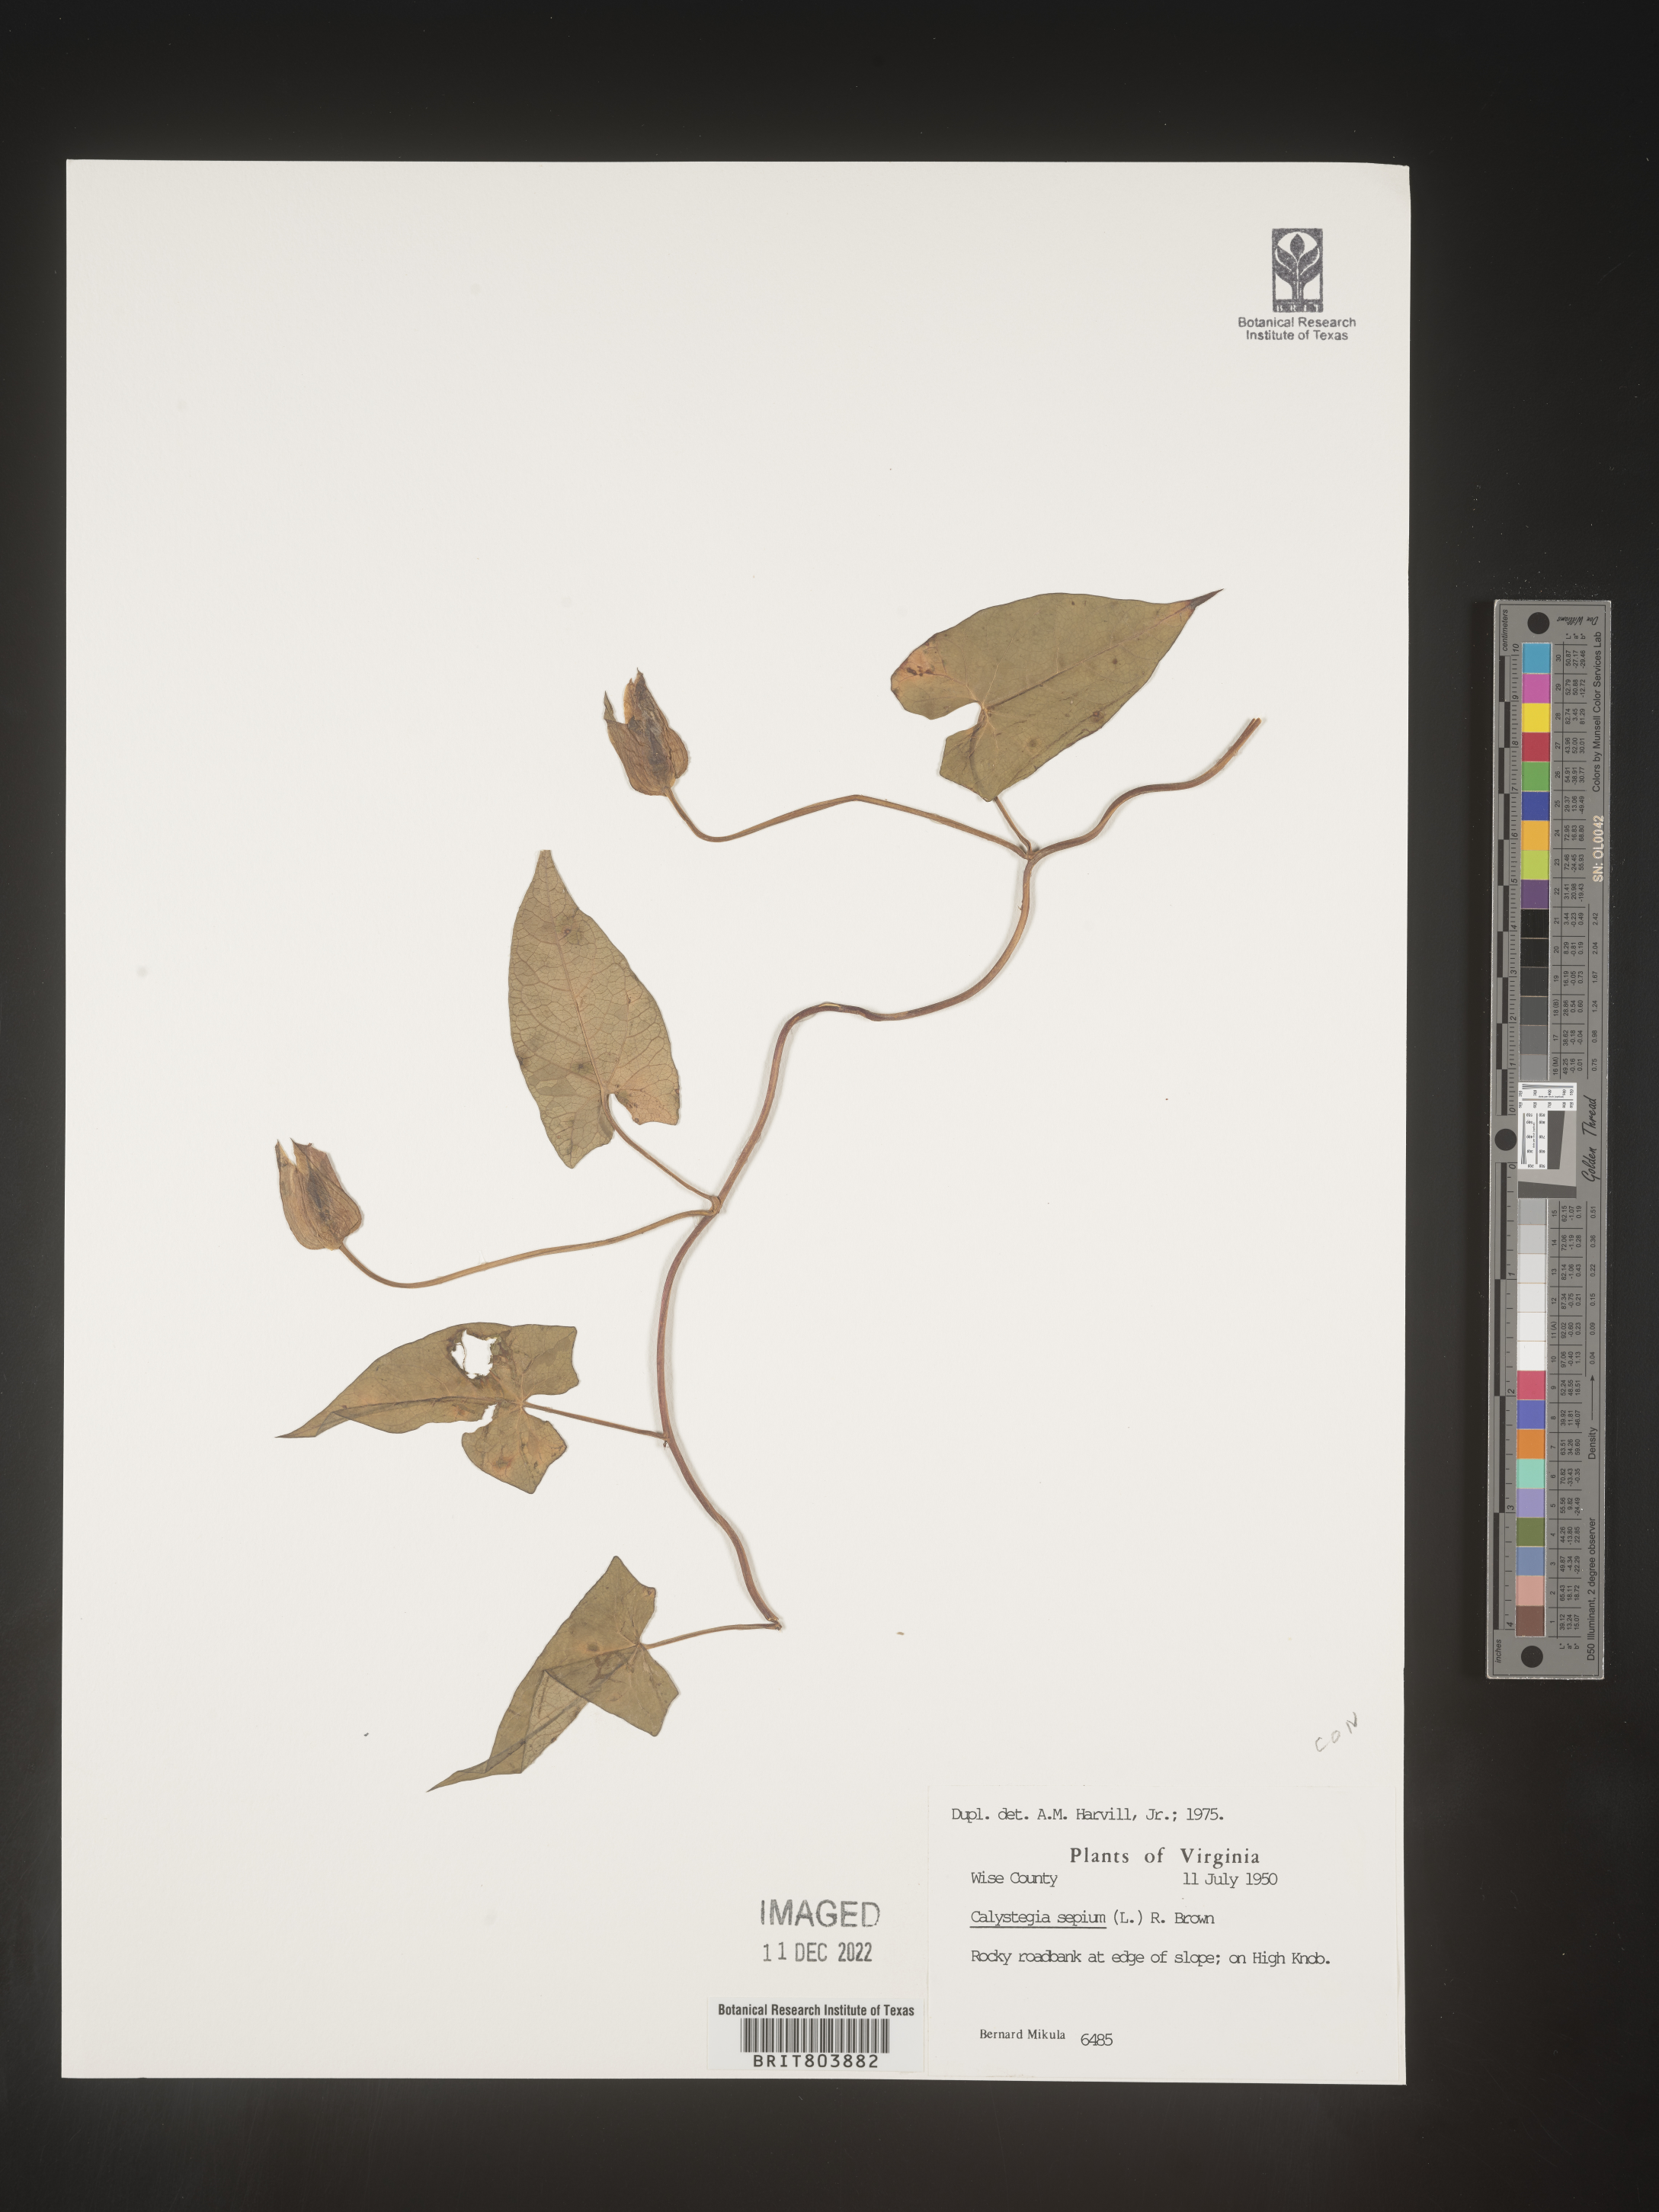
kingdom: Plantae
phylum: Tracheophyta
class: Magnoliopsida
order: Solanales
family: Convolvulaceae
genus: Calystegia
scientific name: Calystegia sepium
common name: Hedge bindweed
